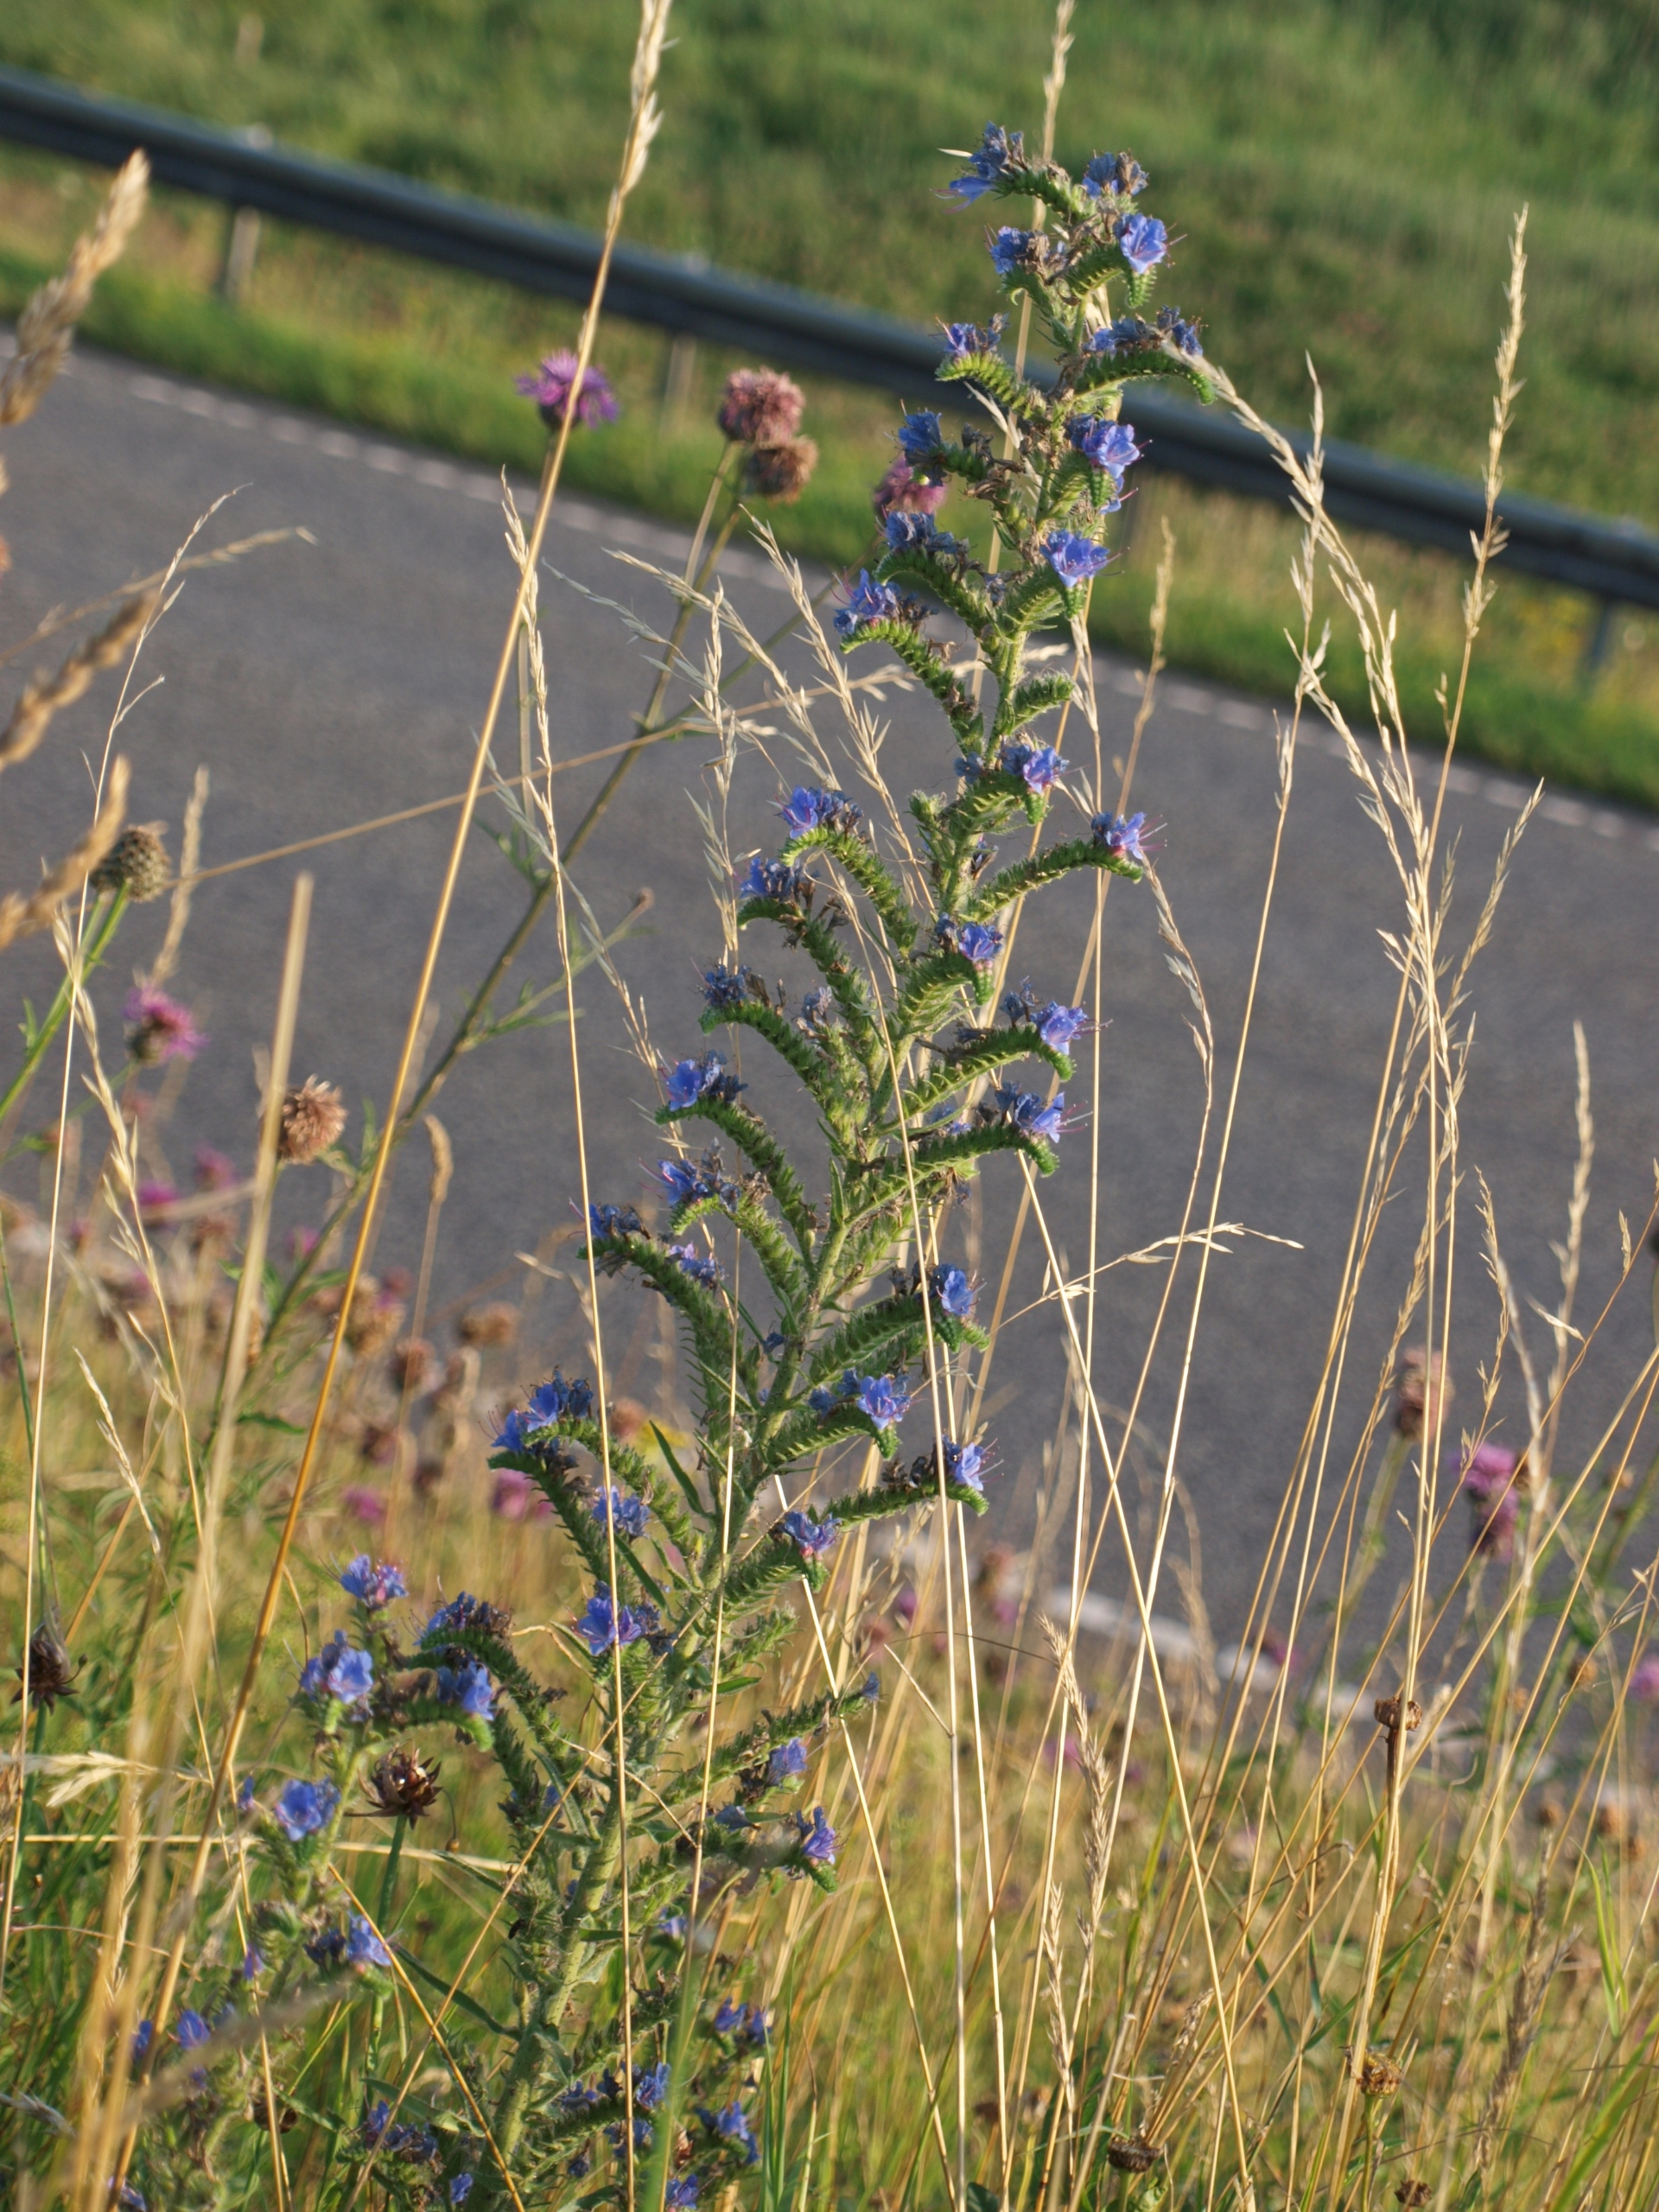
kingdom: Plantae
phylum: Tracheophyta
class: Magnoliopsida
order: Boraginales
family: Boraginaceae
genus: Echium
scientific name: Echium vulgare
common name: Slangehoved
